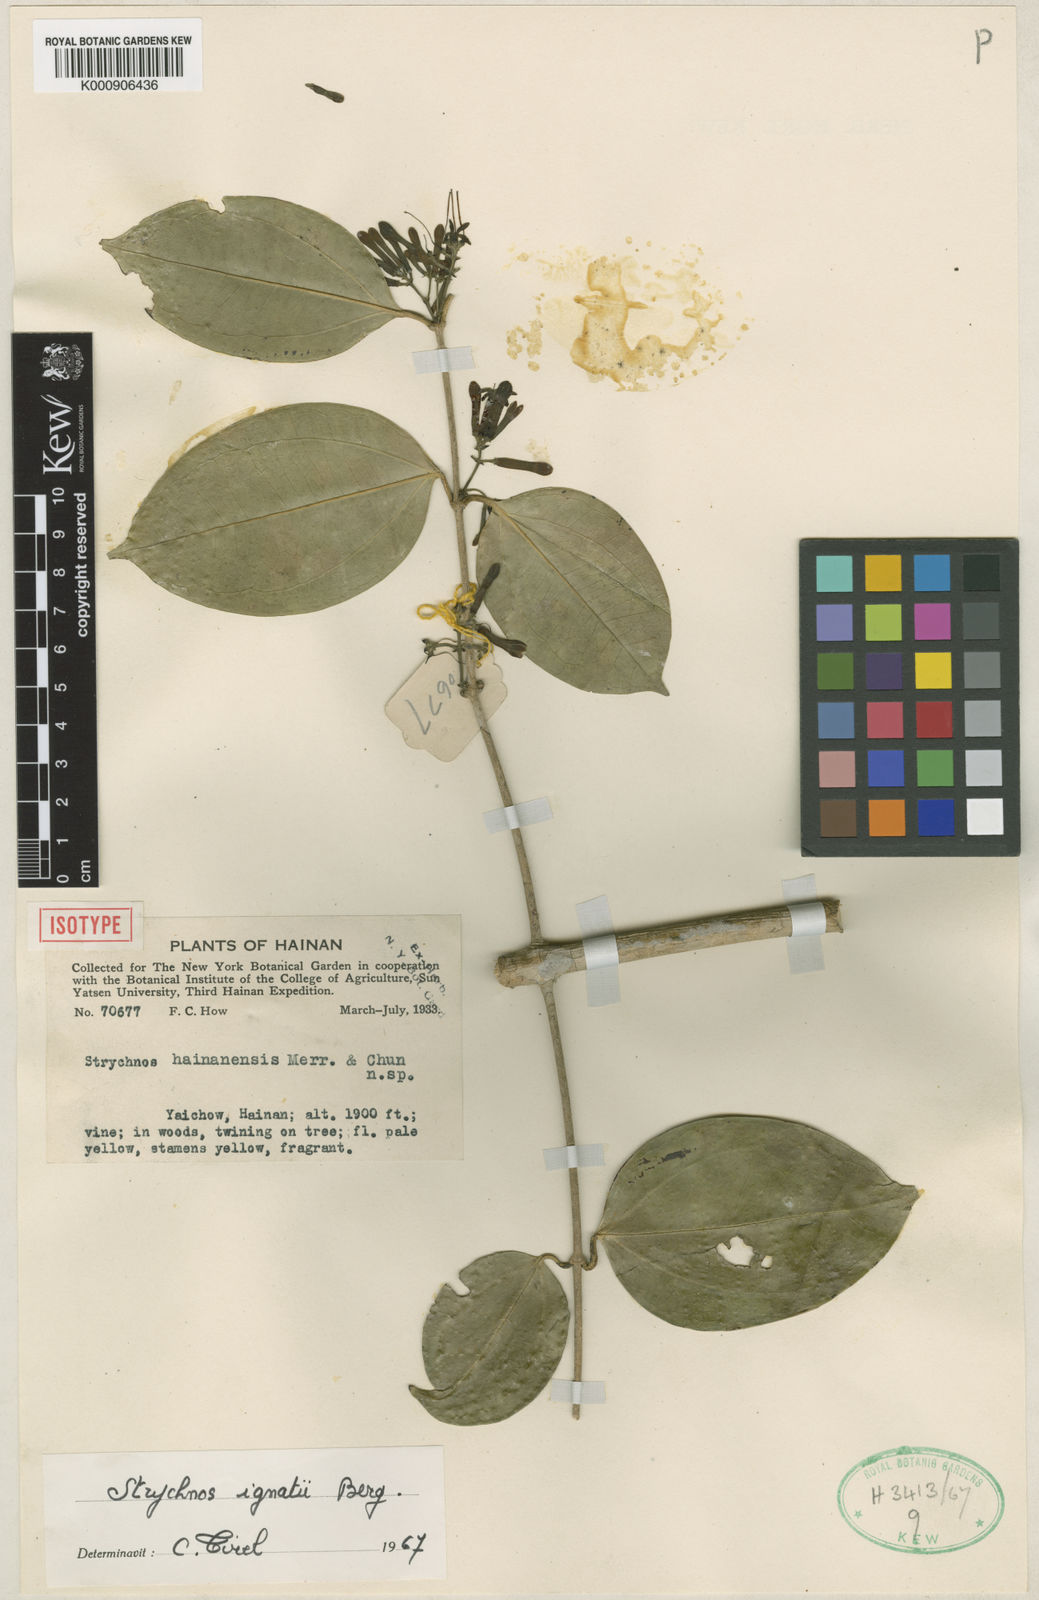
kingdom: Plantae
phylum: Tracheophyta
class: Magnoliopsida
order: Gentianales
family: Loganiaceae
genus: Strychnos
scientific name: Strychnos ignatii
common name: Ignatius-bean
